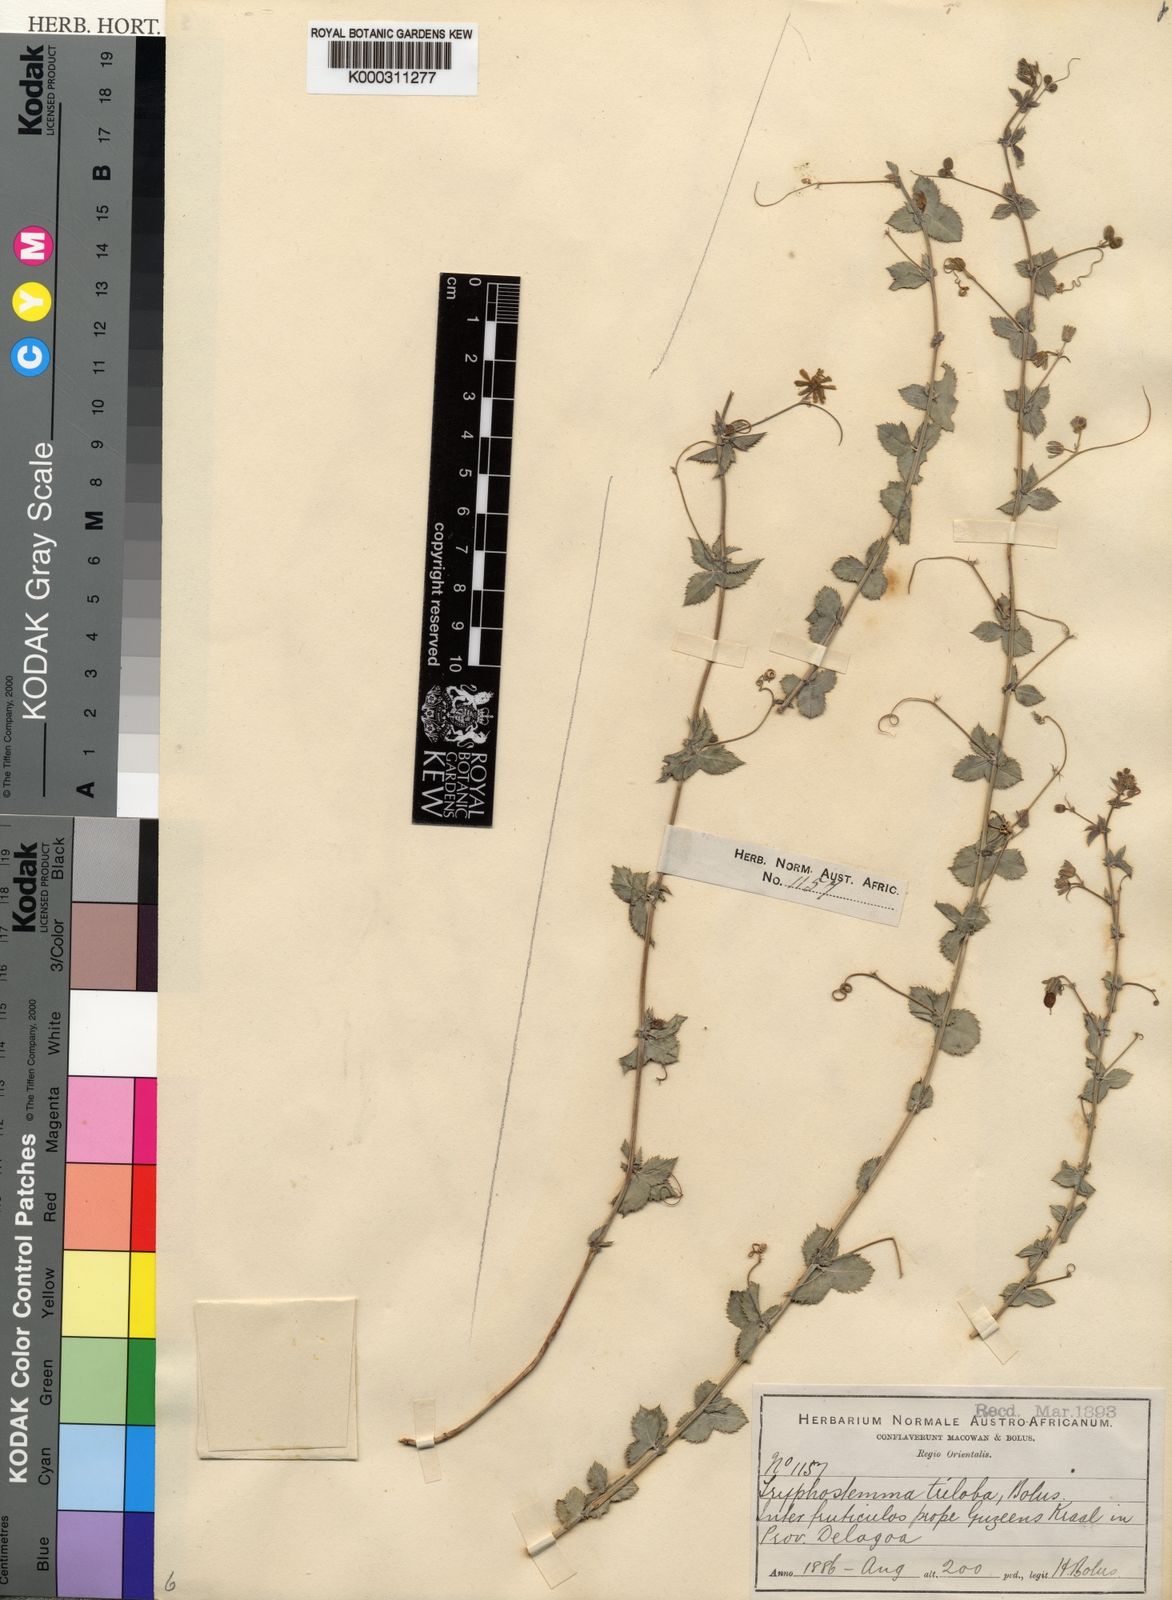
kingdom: Plantae
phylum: Tracheophyta
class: Magnoliopsida
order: Malpighiales
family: Passifloraceae
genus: Basananthe
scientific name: Basananthe triloba
